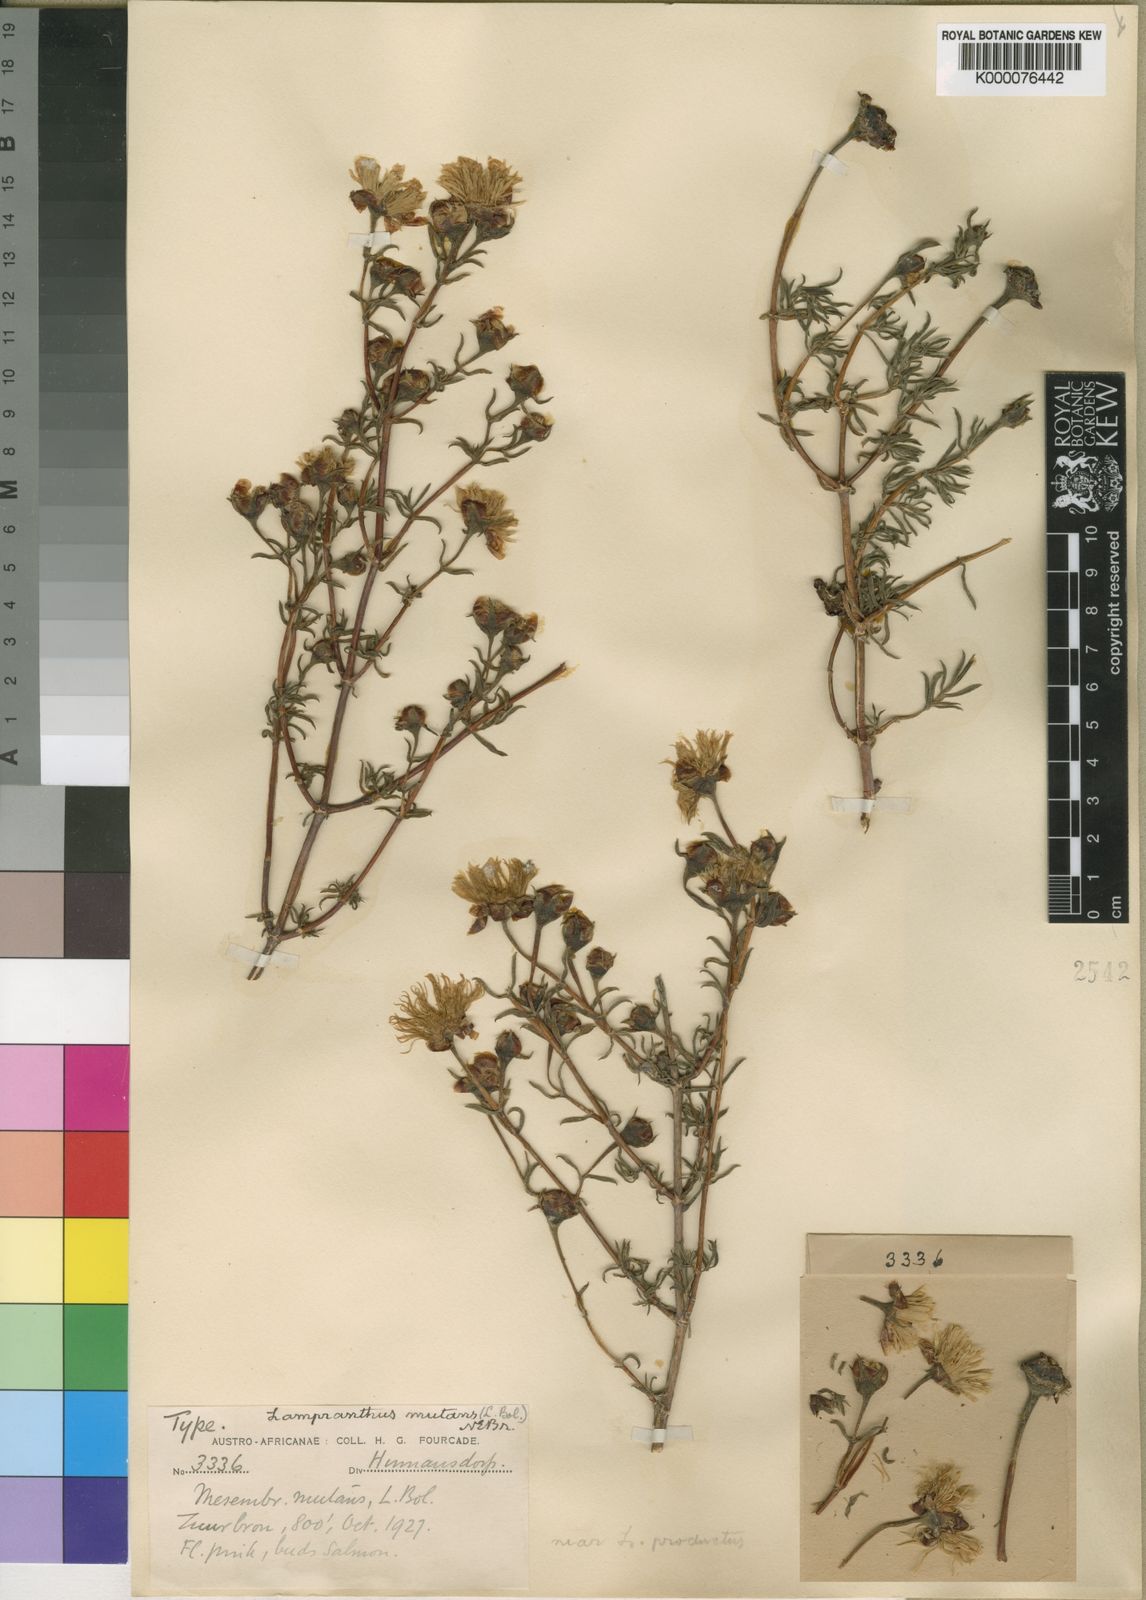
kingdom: Plantae
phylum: Tracheophyta
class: Magnoliopsida
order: Caryophyllales
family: Aizoaceae
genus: Lampranthus
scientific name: Lampranthus mutans
